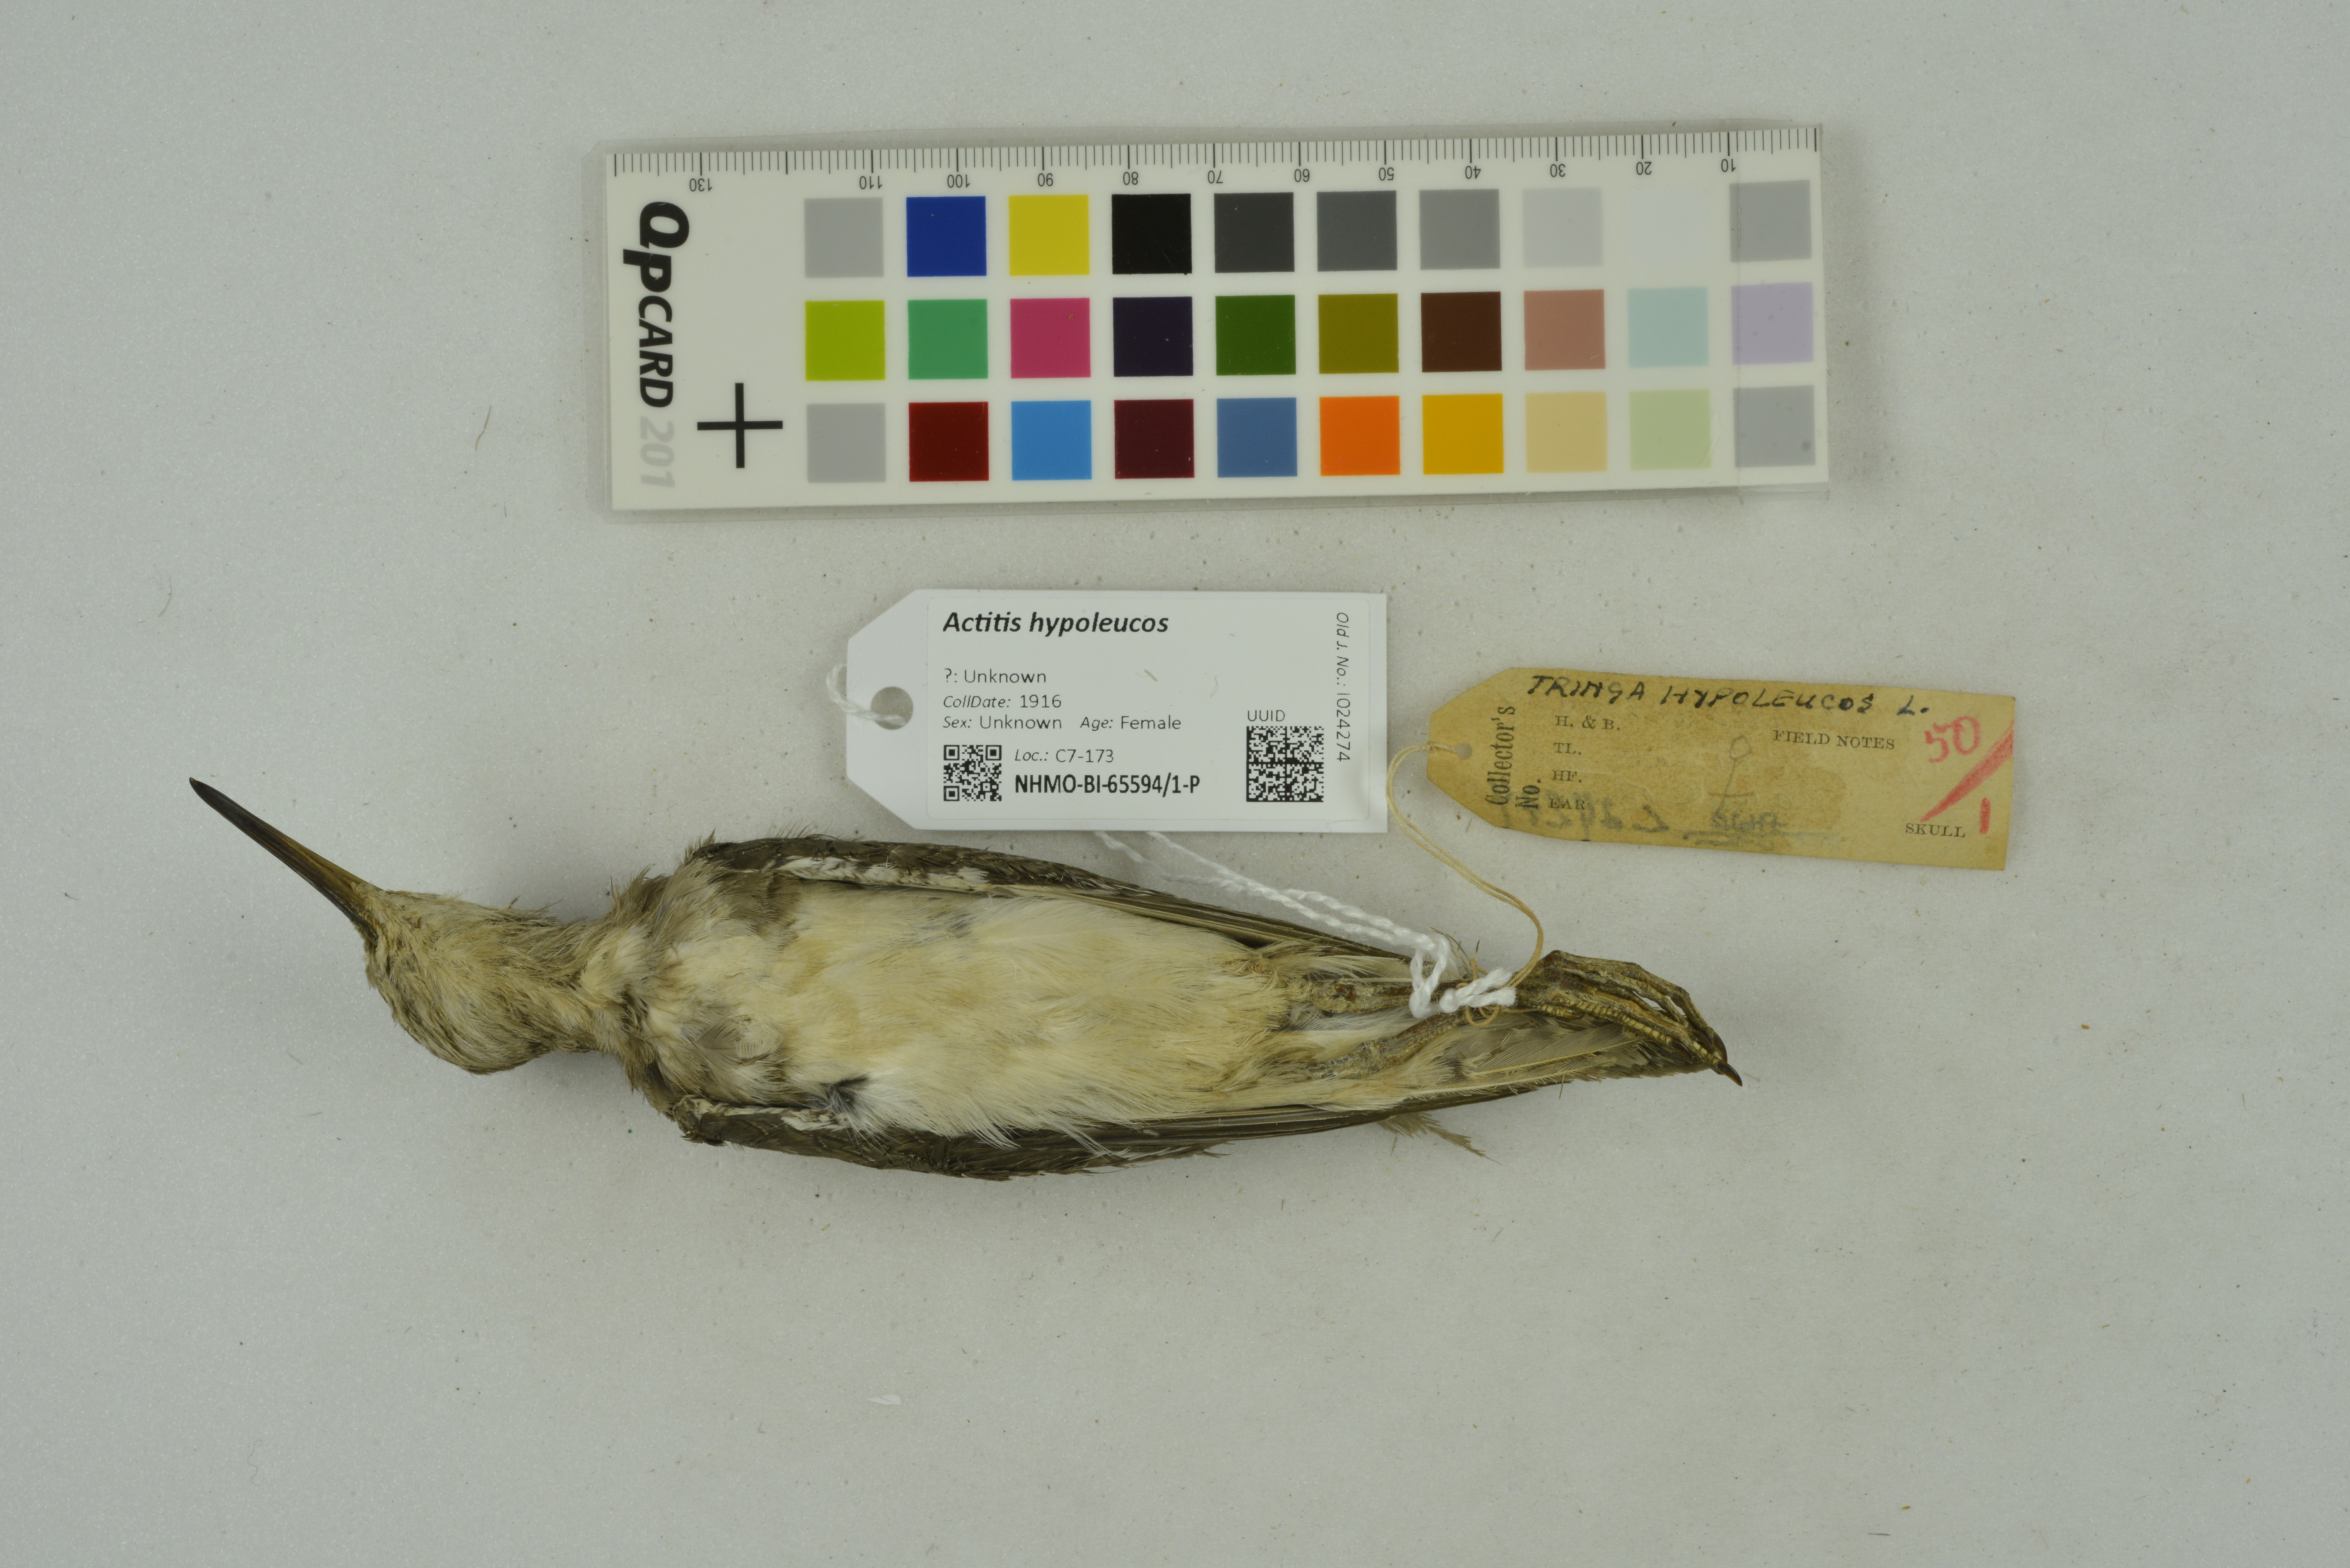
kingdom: Animalia
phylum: Chordata
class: Aves
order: Charadriiformes
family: Scolopacidae
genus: Actitis
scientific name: Actitis hypoleucos
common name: Common sandpiper
